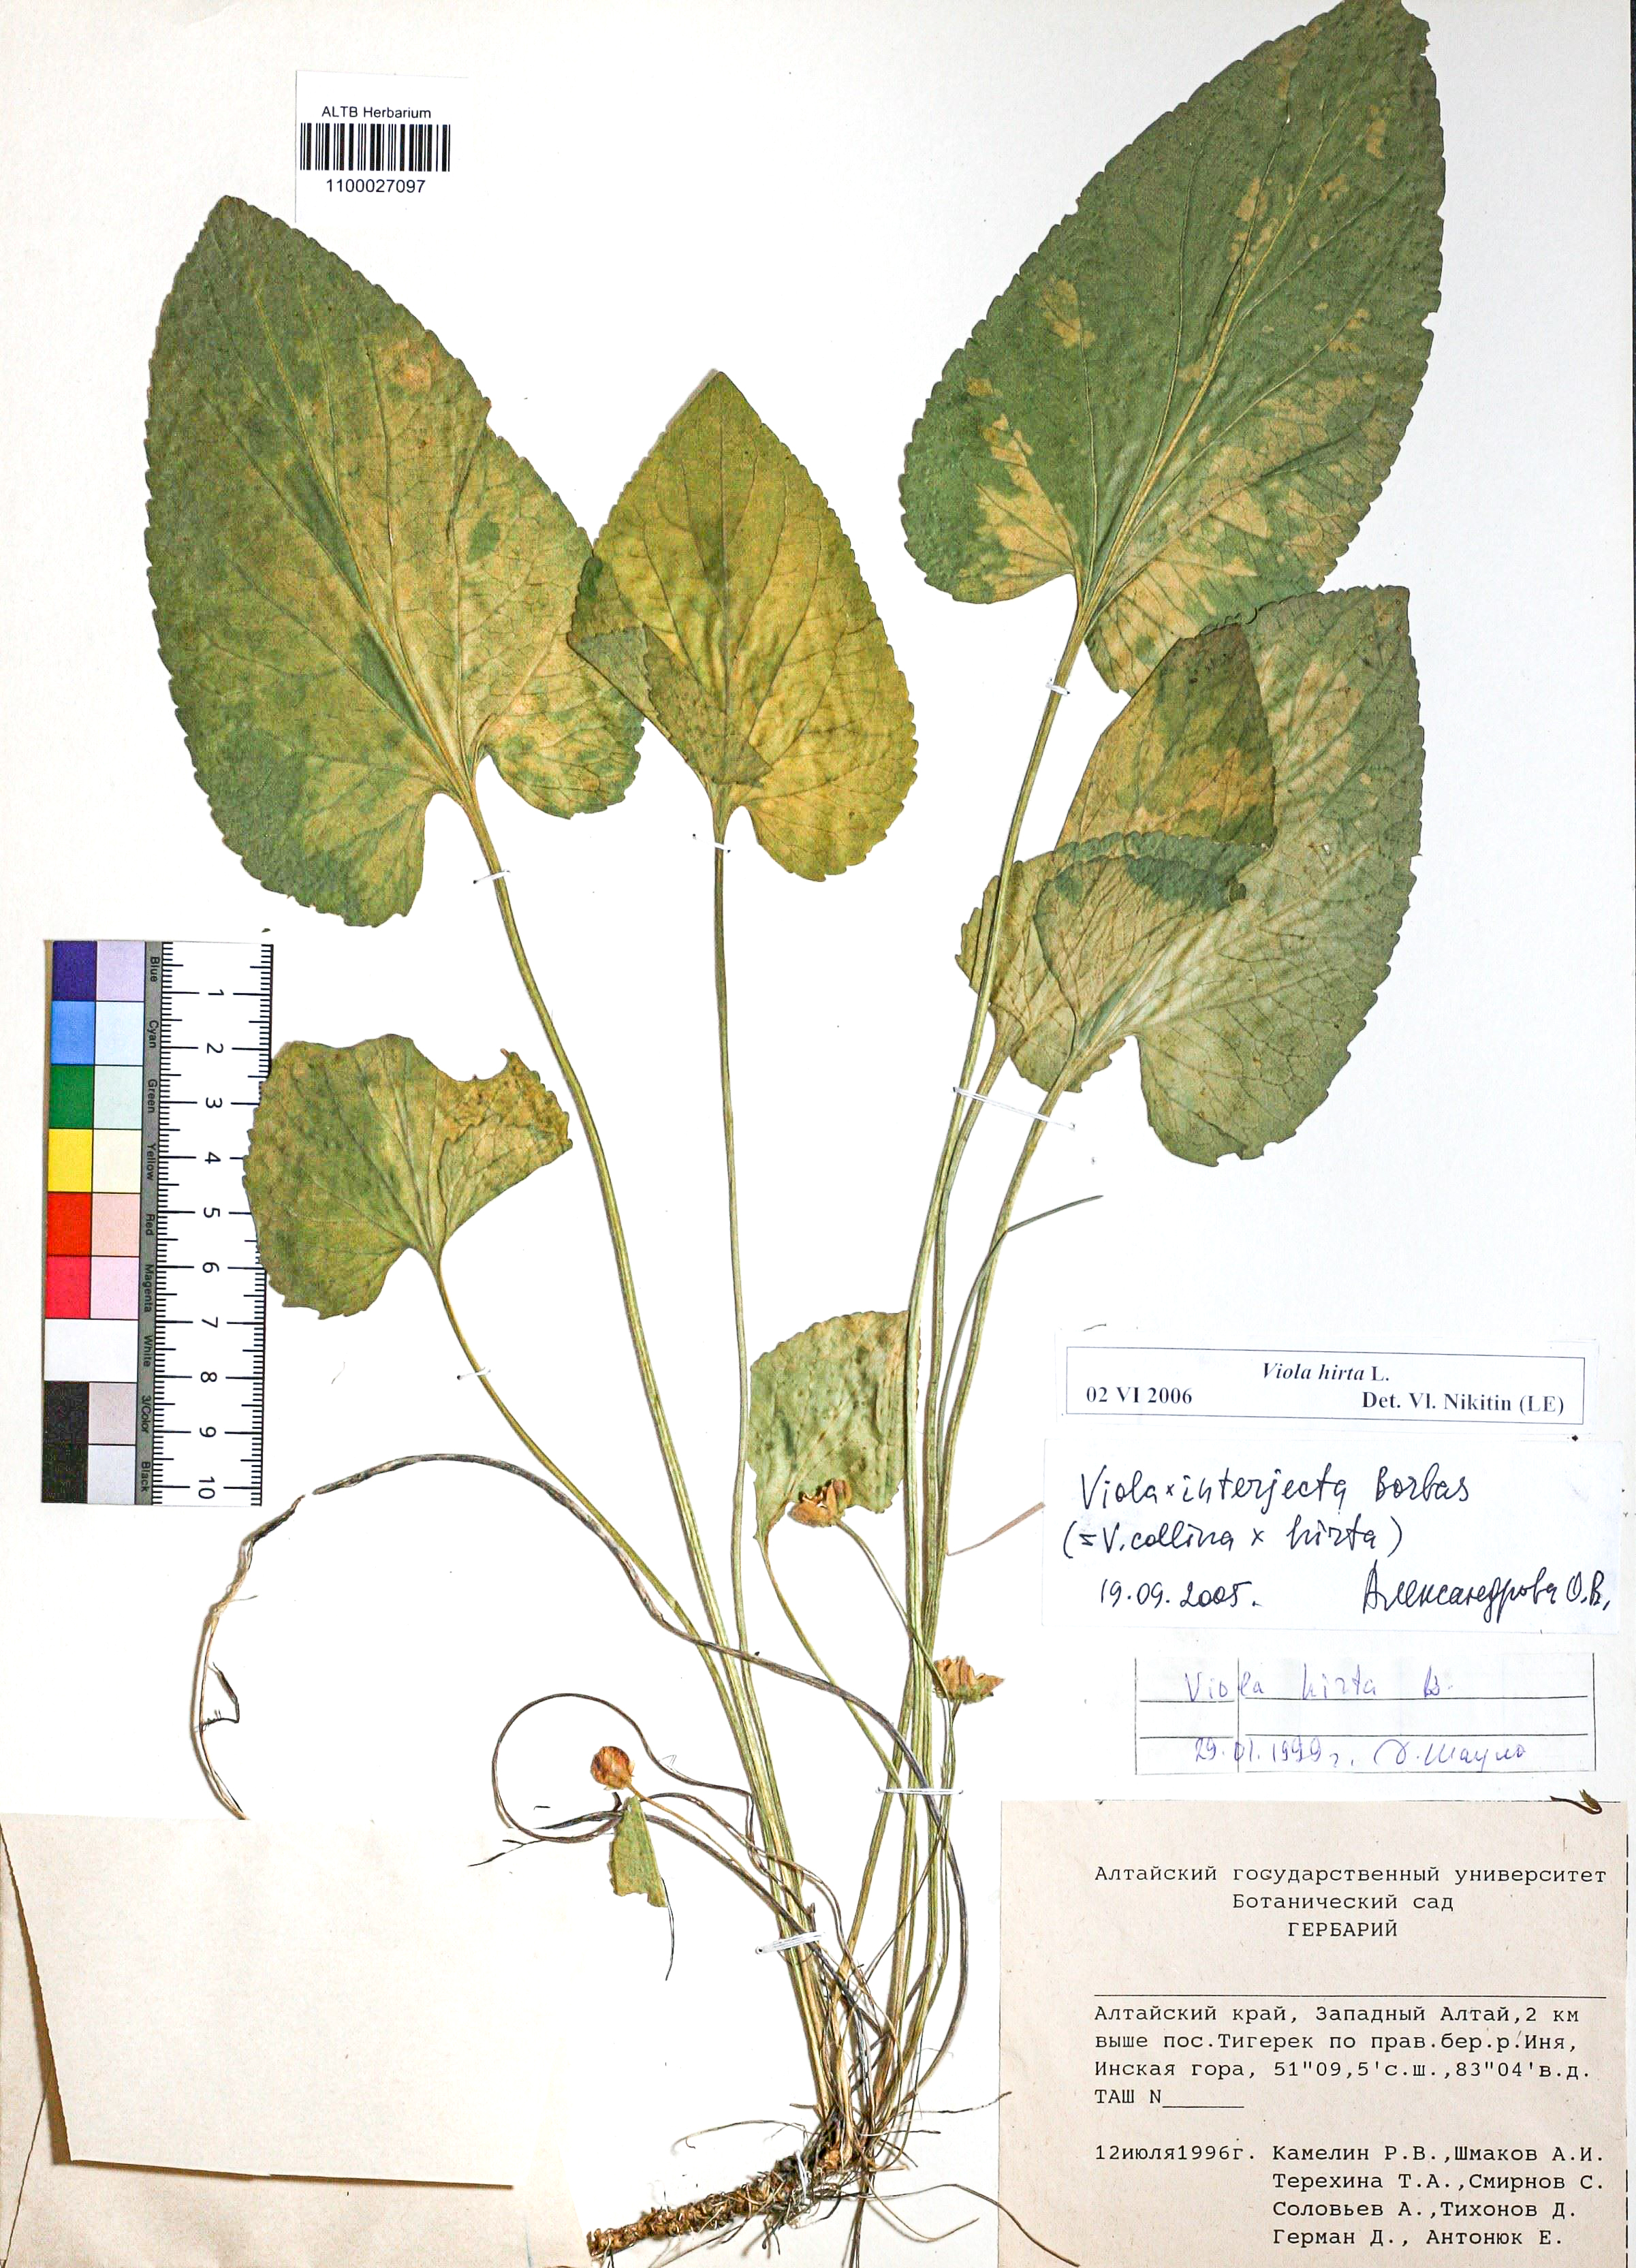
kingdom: Plantae
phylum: Tracheophyta
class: Magnoliopsida
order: Malpighiales
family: Violaceae
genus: Viola
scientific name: Viola hirta
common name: Hairy violet
